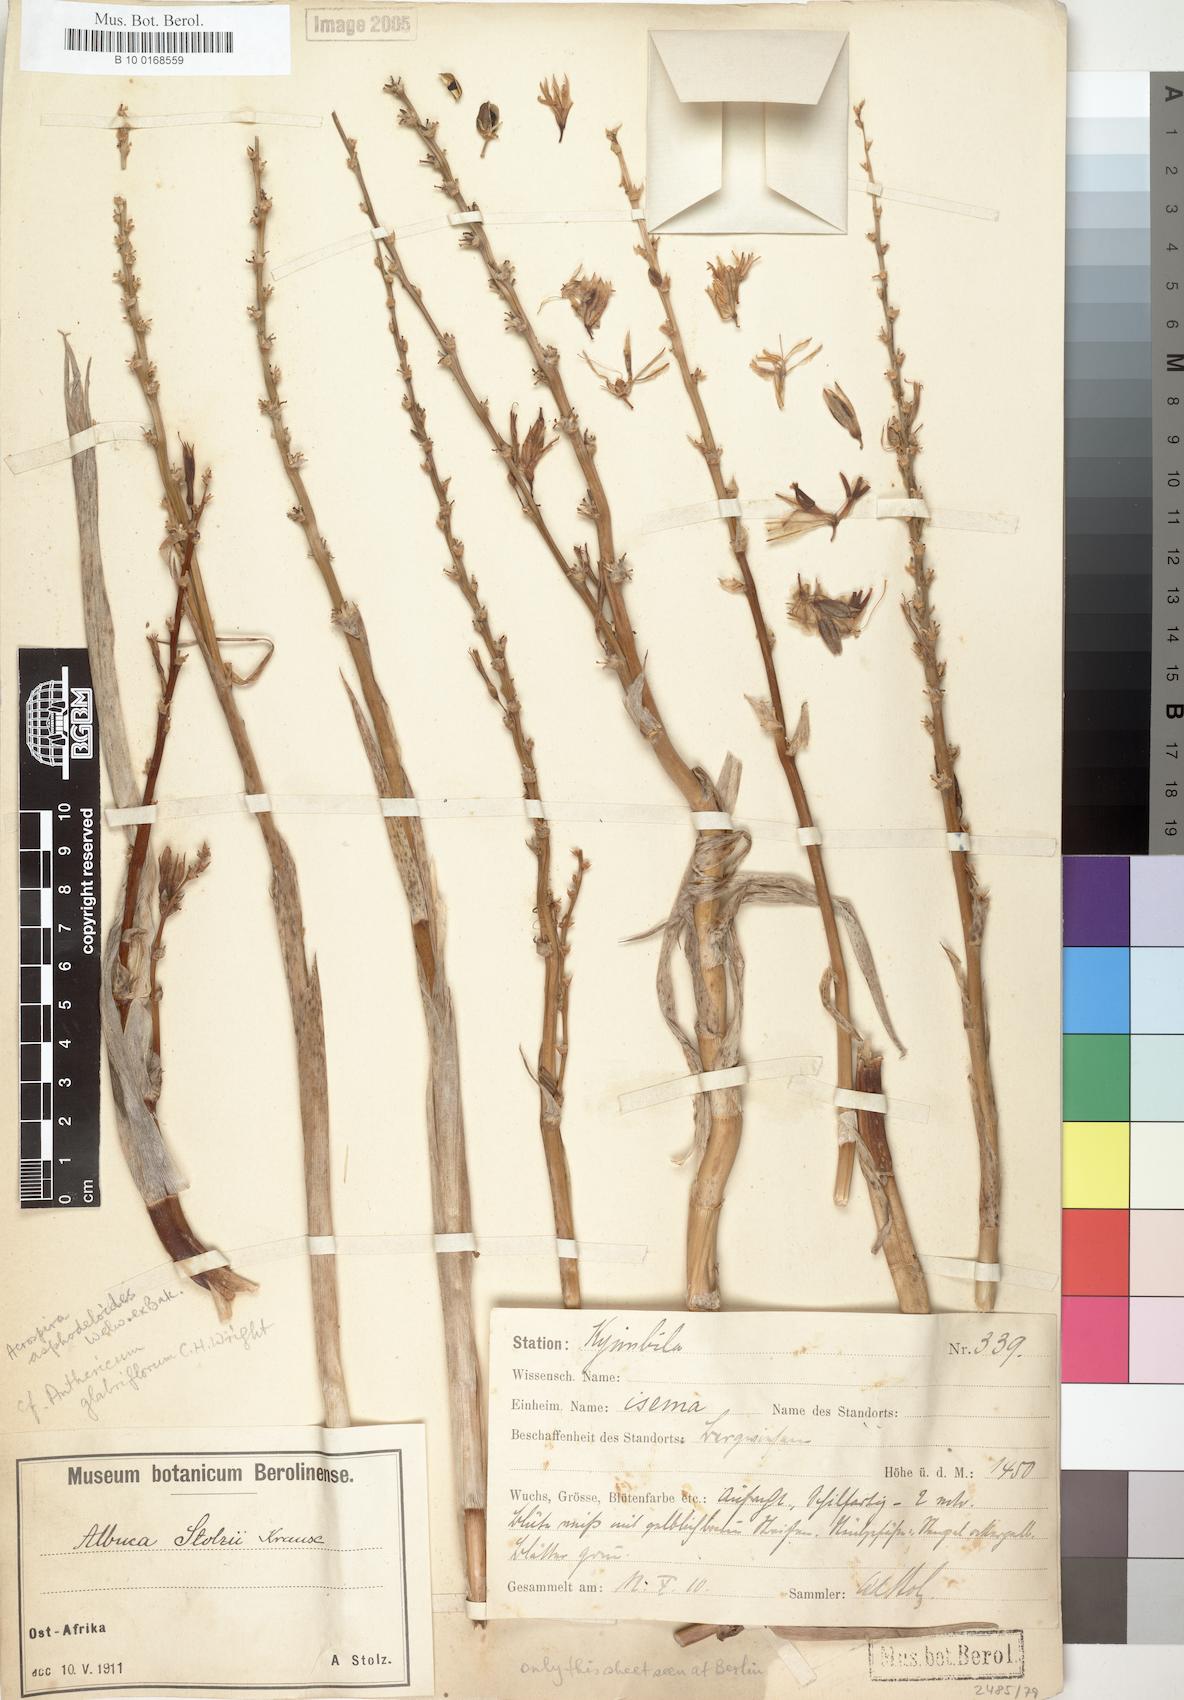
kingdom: Plantae
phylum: Tracheophyta
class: Liliopsida
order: Asparagales
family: Asparagaceae
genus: Chlorophytum
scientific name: Chlorophytum stolzii
